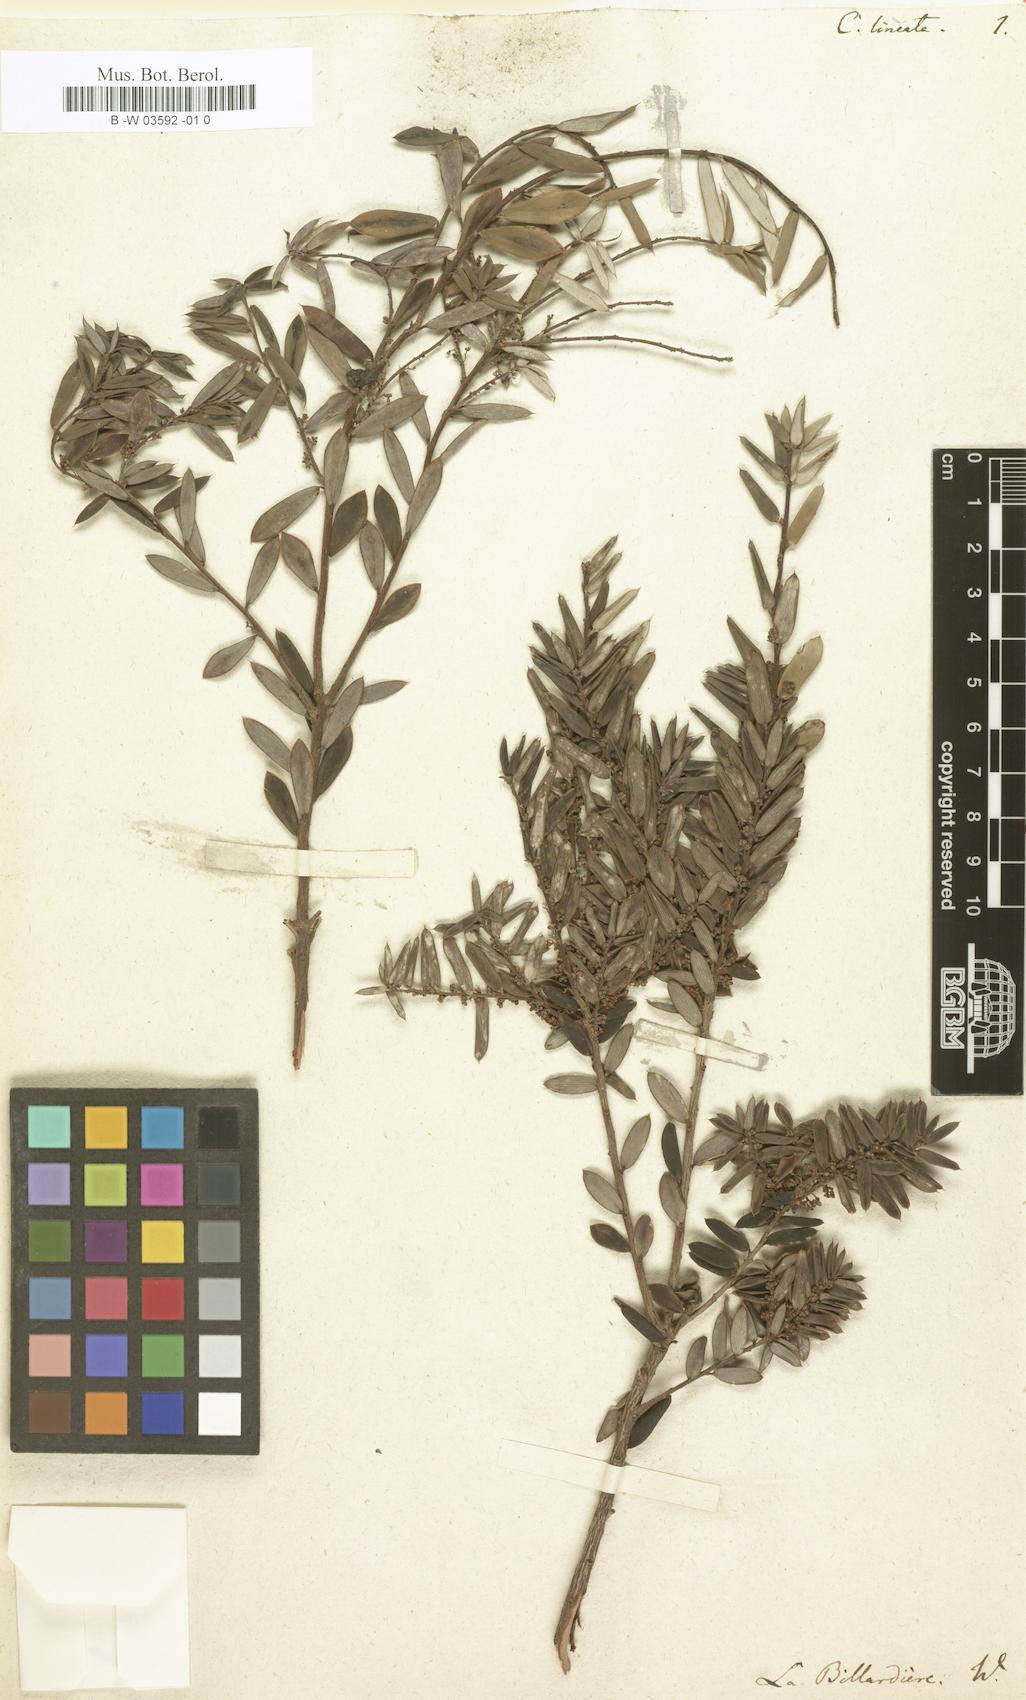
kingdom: Plantae
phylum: Tracheophyta
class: Magnoliopsida
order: Ericales
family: Ericaceae
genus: Cyathodes
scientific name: Cyathodes
